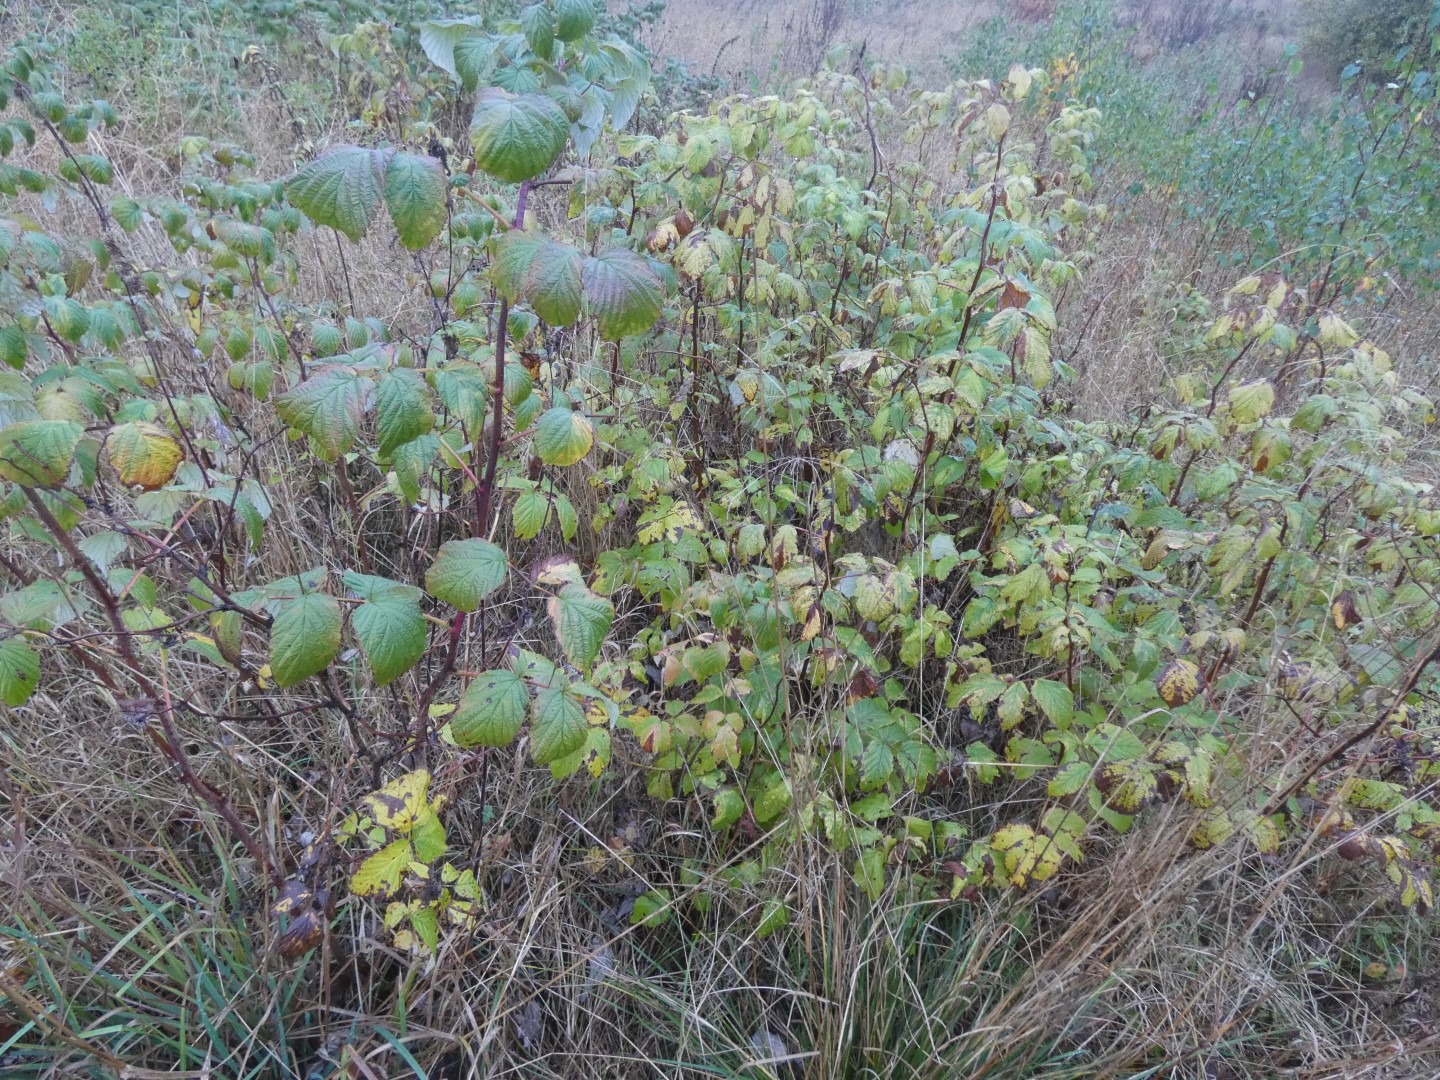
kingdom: Plantae
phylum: Tracheophyta
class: Magnoliopsida
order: Rosales
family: Rosaceae
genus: Rubus
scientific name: Rubus idaeus
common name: Hindbær
